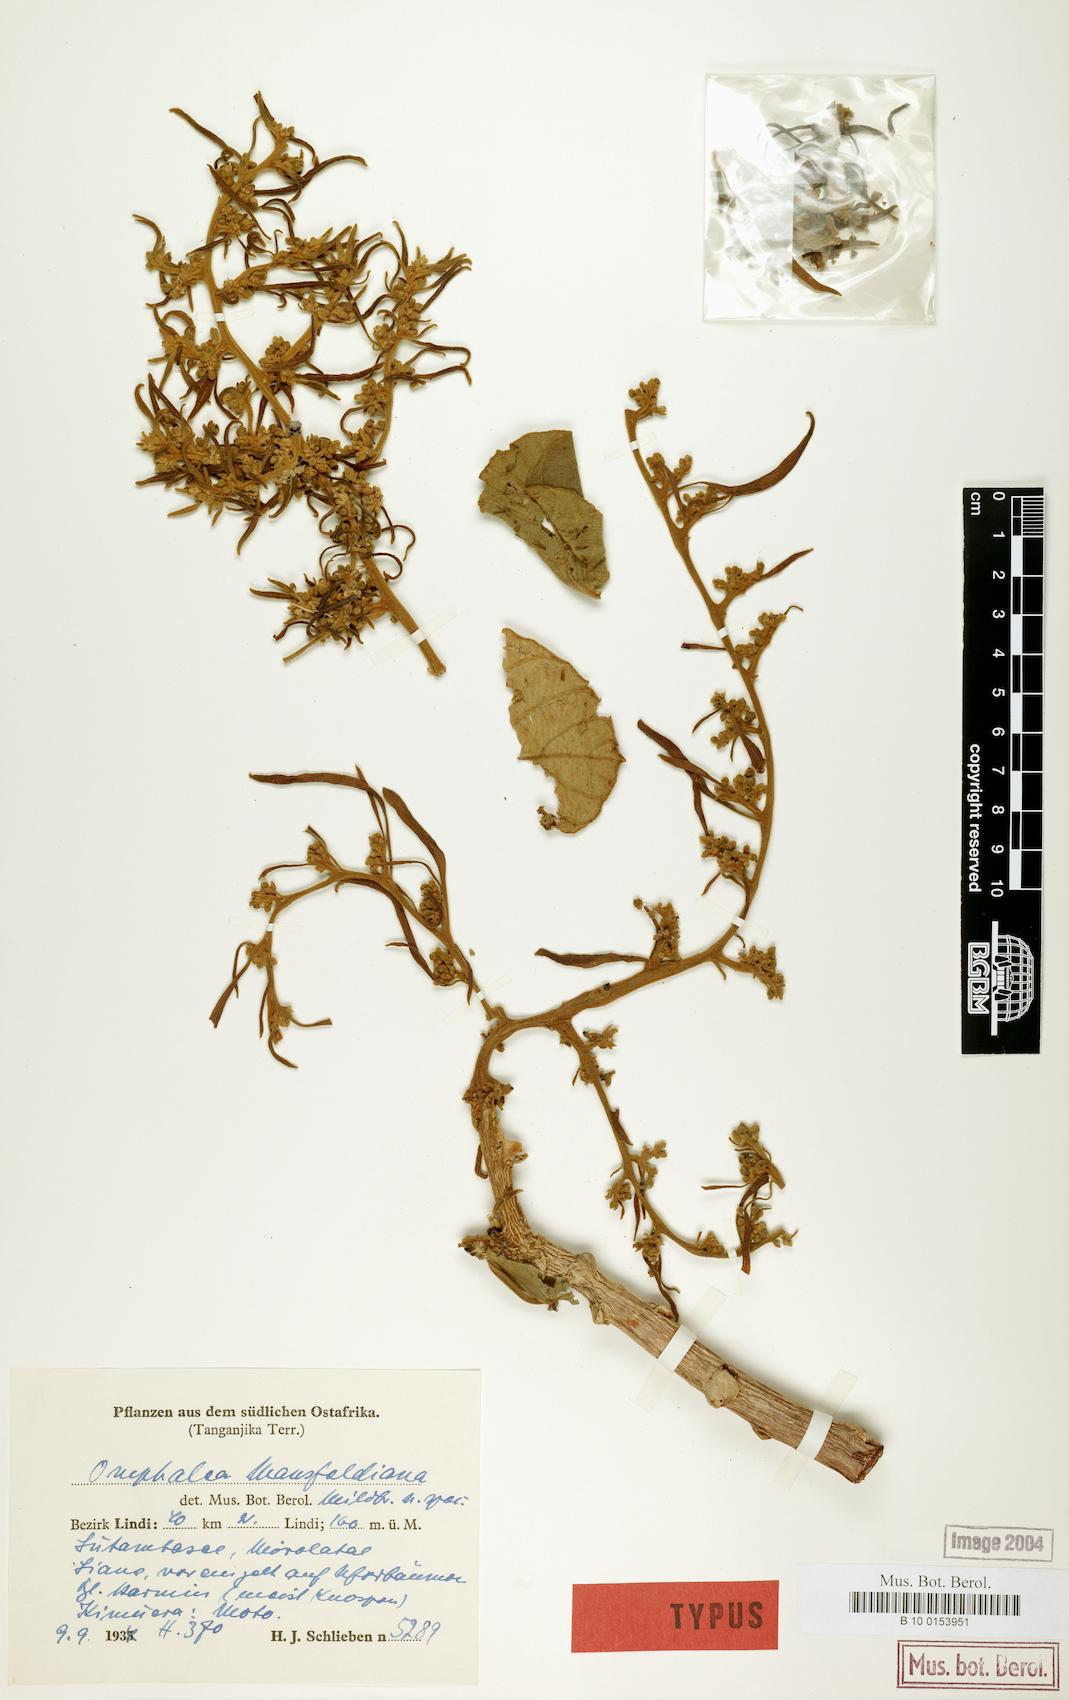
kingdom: Plantae
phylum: Tracheophyta
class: Magnoliopsida
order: Malpighiales
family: Euphorbiaceae
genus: Omphalea
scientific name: Omphalea mansfeldiana
